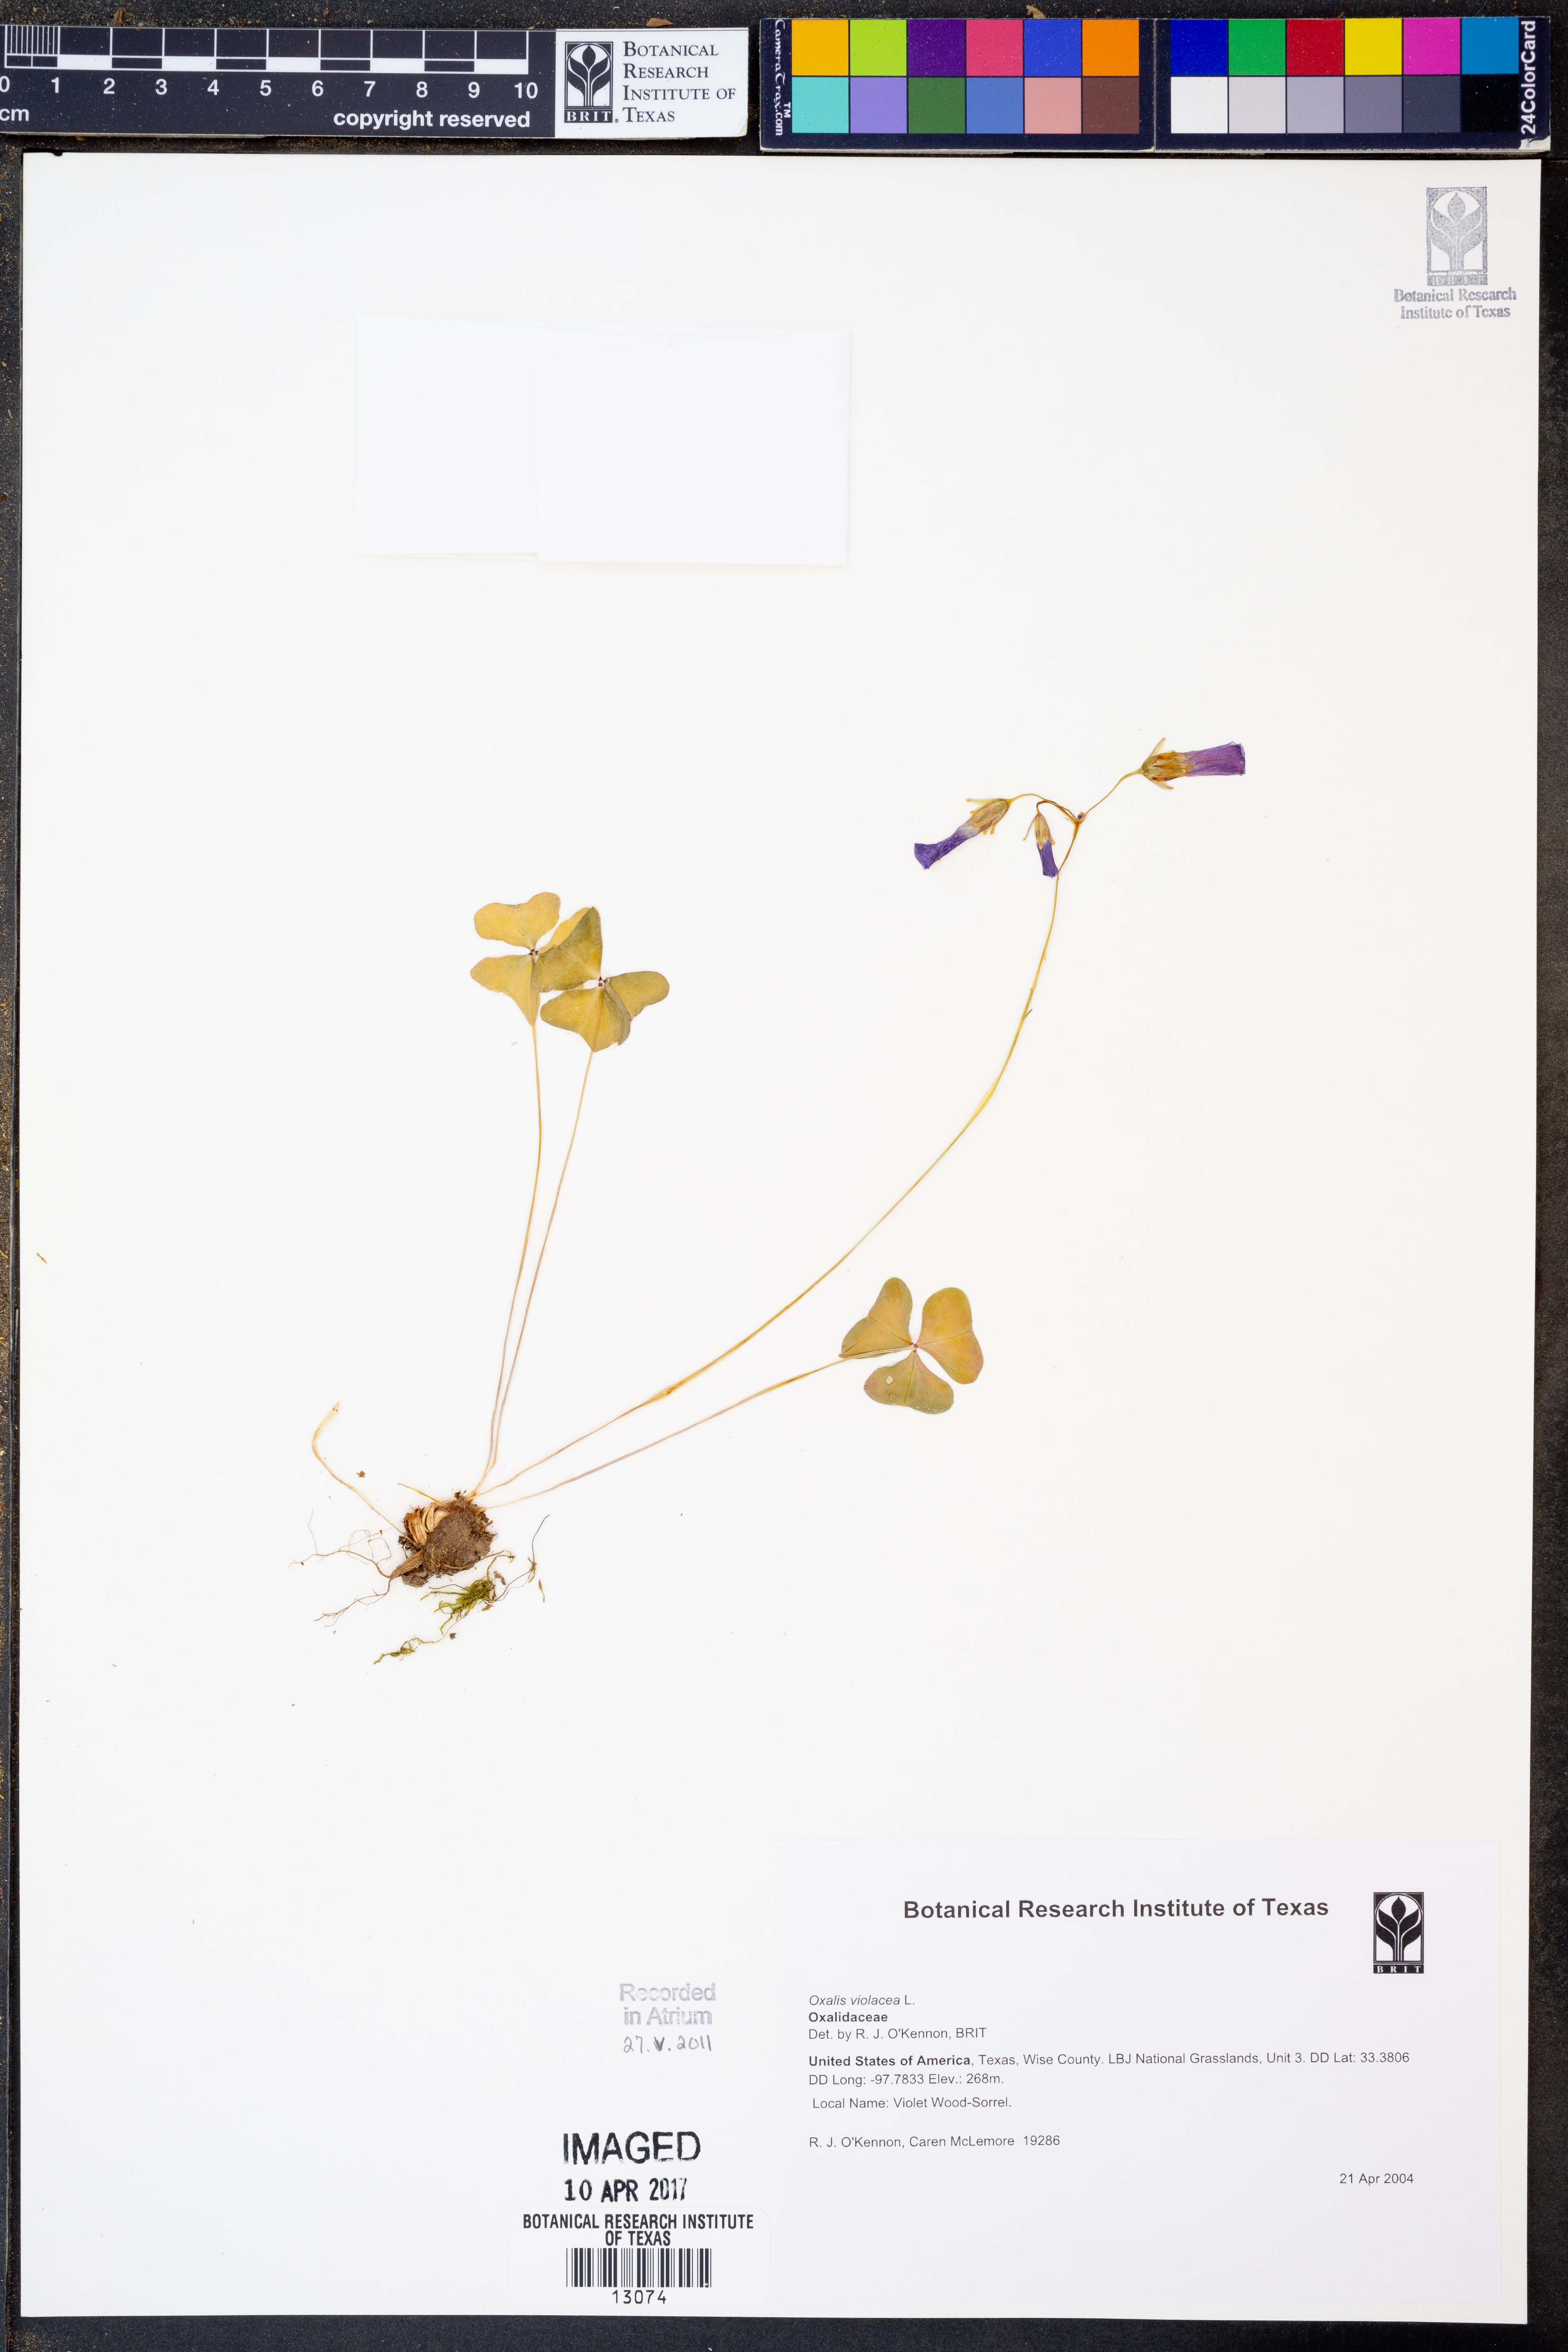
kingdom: Plantae
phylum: Tracheophyta
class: Magnoliopsida
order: Oxalidales
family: Oxalidaceae
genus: Oxalis
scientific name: Oxalis violacea
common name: Violet wood-sorrel
